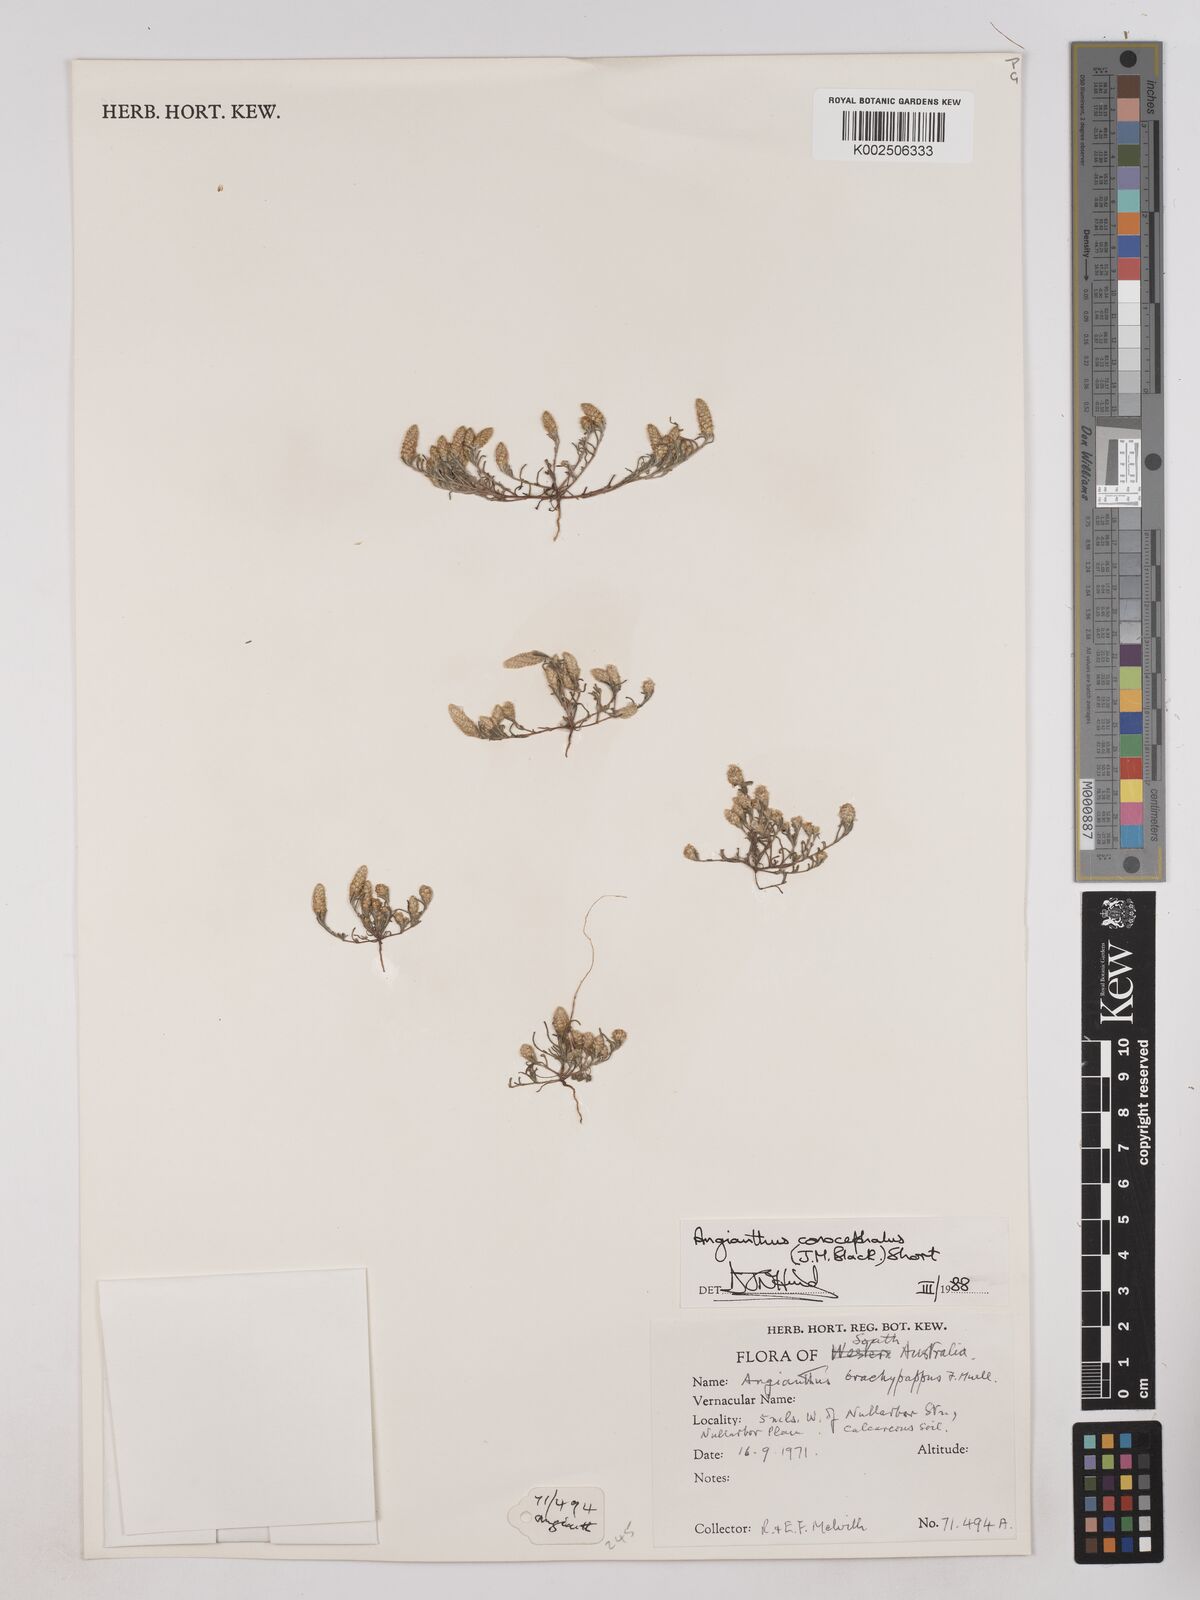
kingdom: Plantae
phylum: Tracheophyta
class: Magnoliopsida
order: Asterales
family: Asteraceae
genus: Angianthus
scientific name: Angianthus conocephalus
